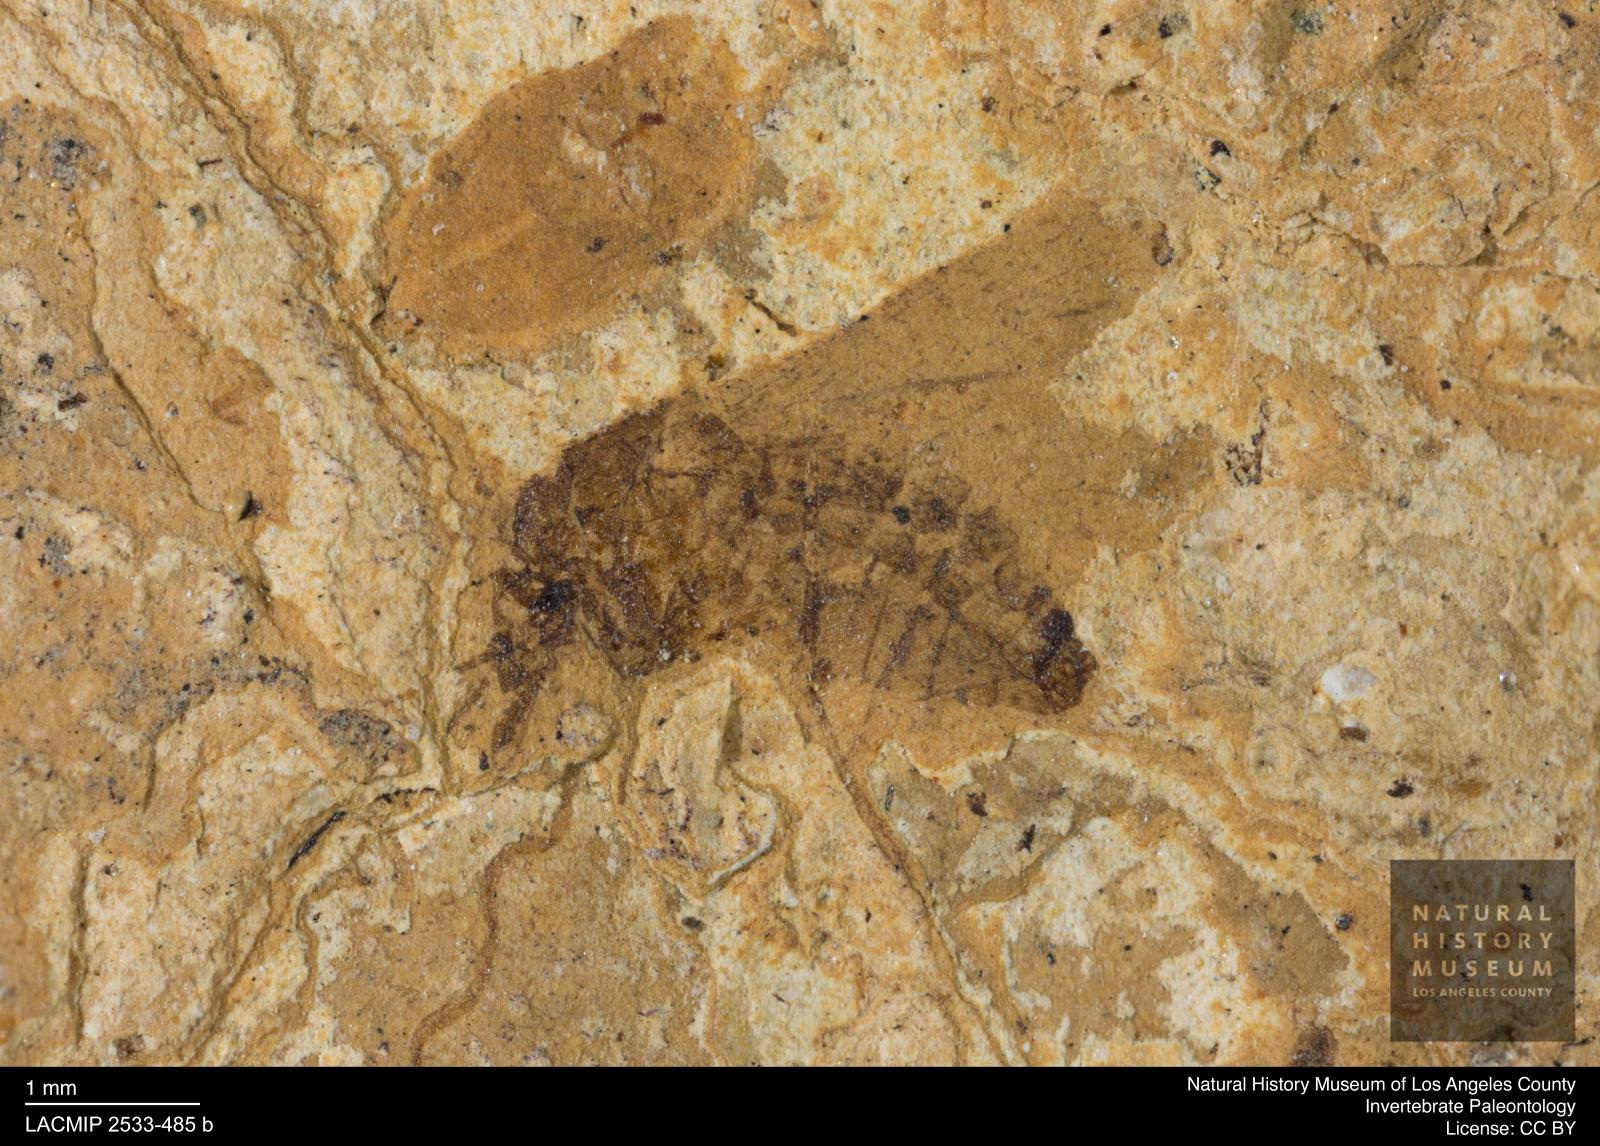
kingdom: Animalia
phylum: Arthropoda
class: Insecta
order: Diptera
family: Culicidae
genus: Mansonia
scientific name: Mansonia varivestita
